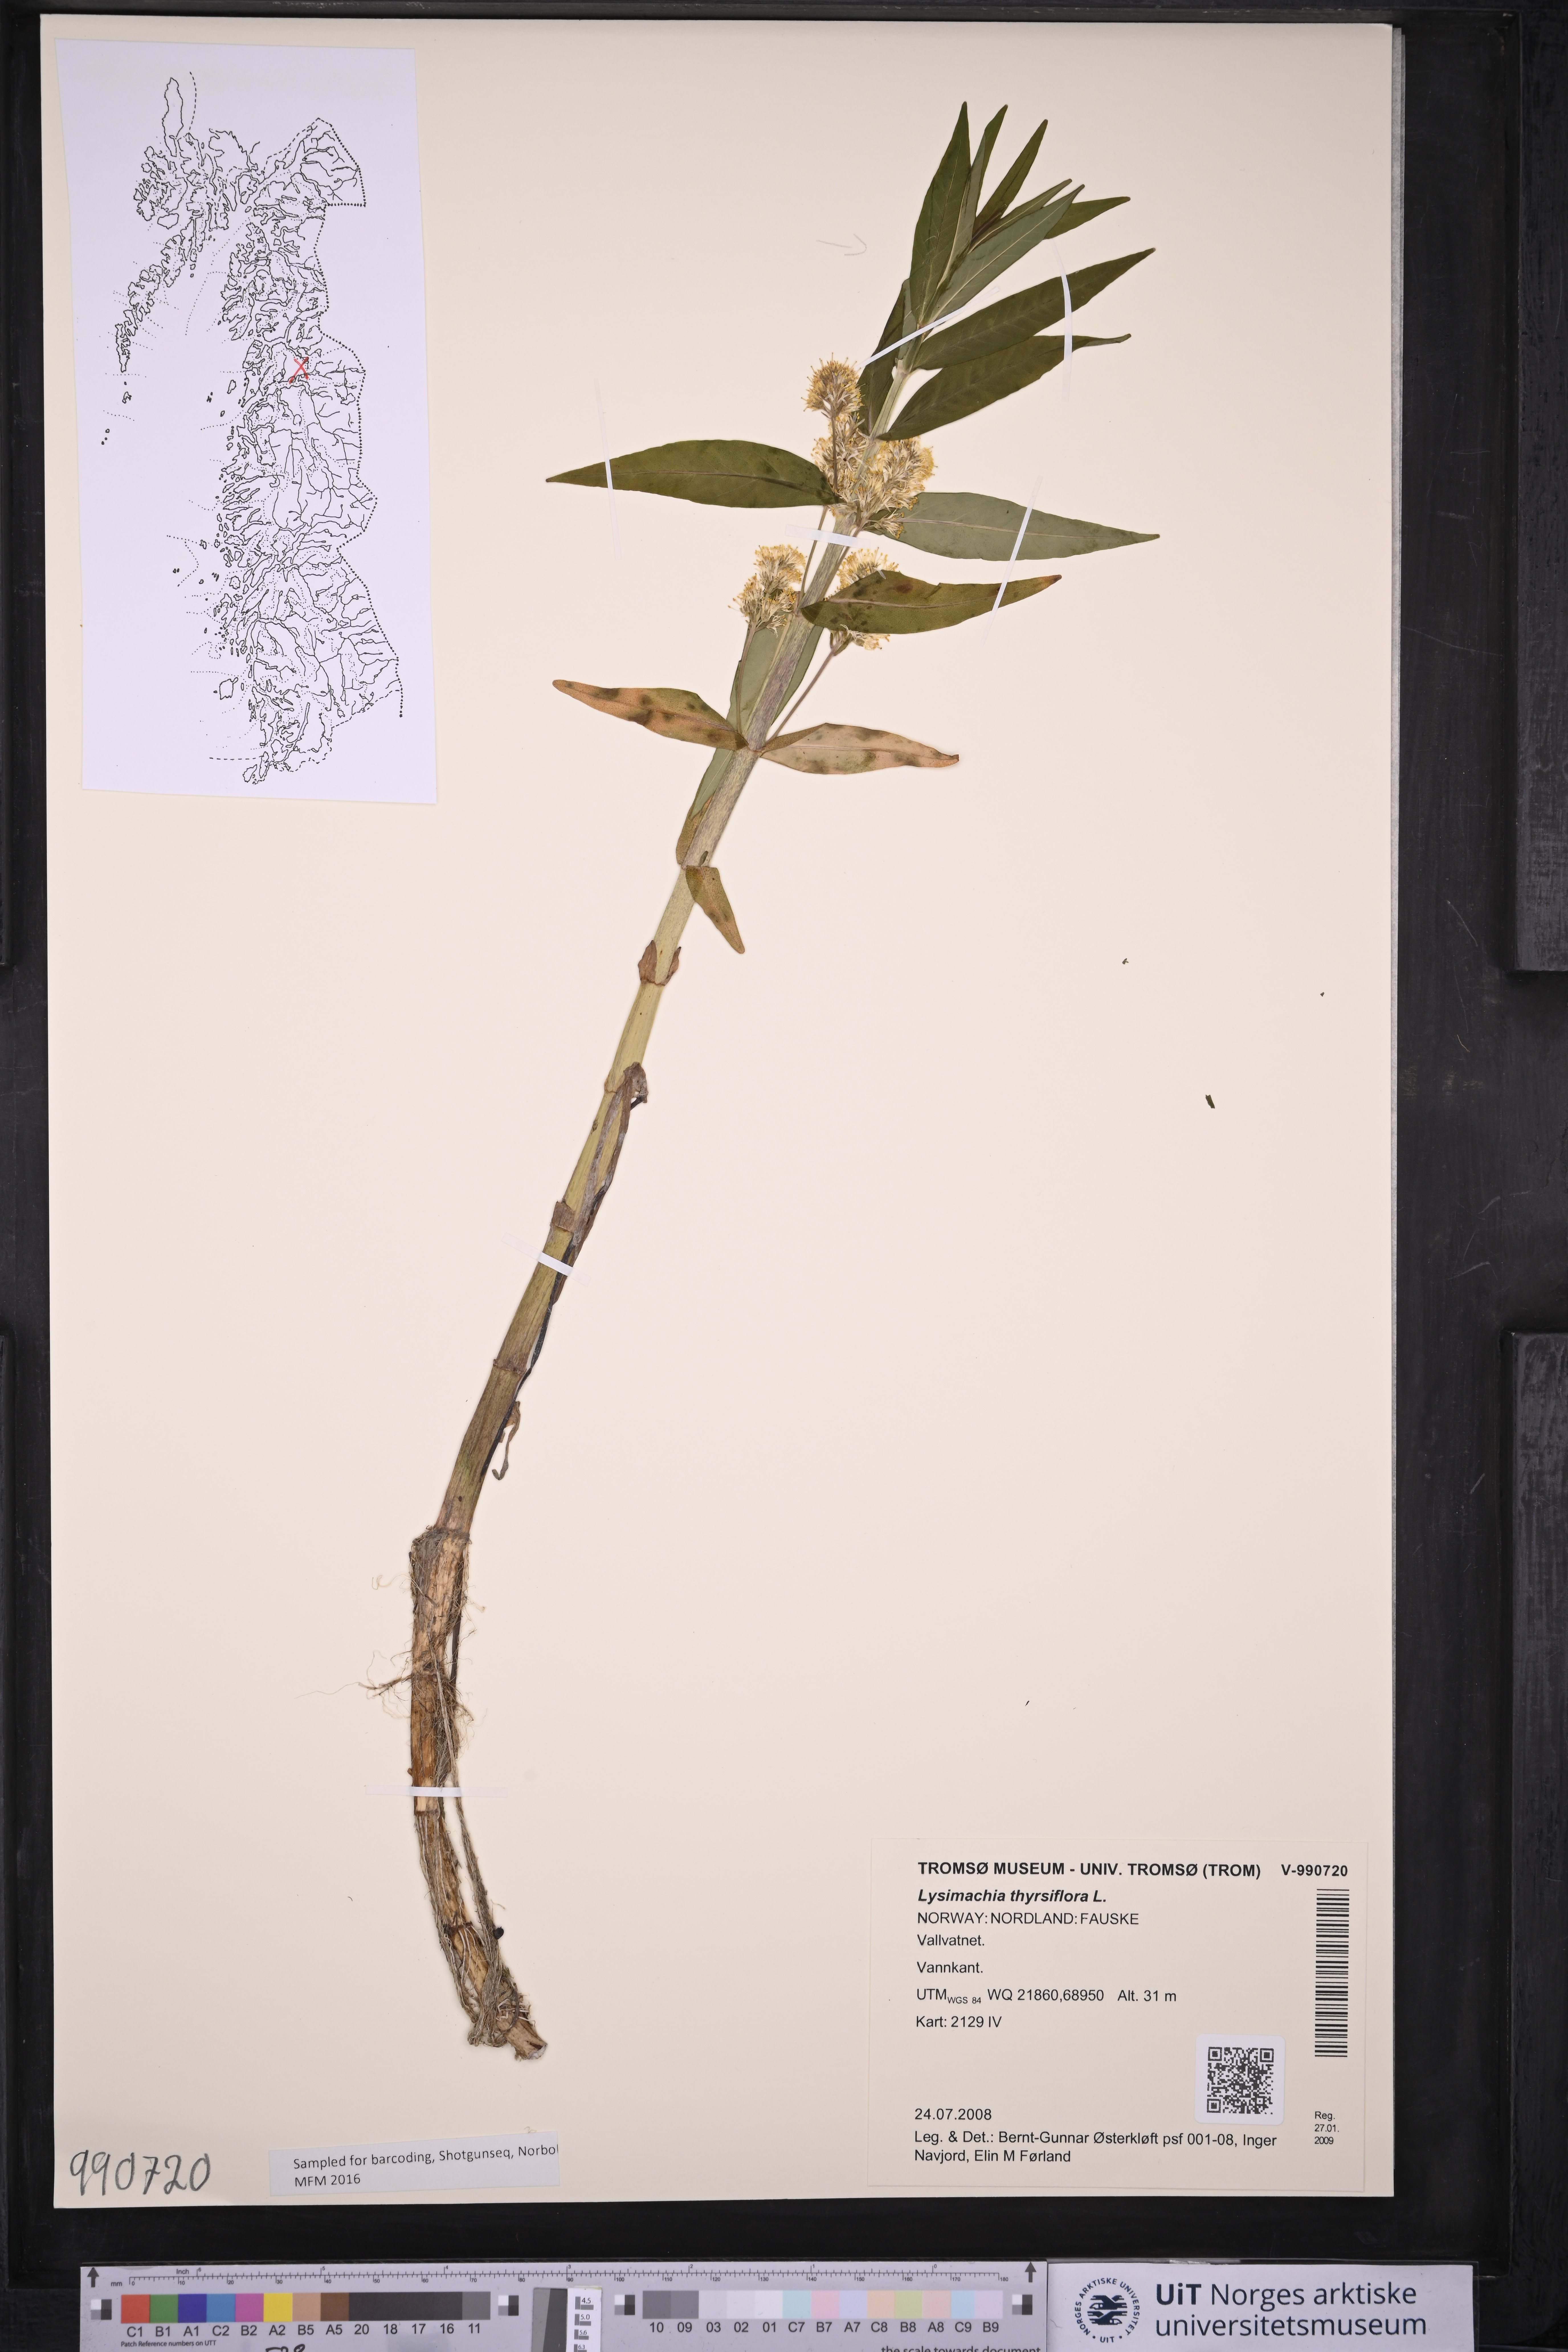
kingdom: Plantae
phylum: Tracheophyta
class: Magnoliopsida
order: Ericales
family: Primulaceae
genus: Lysimachia
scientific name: Lysimachia thyrsiflora
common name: Tufted loosestrife
